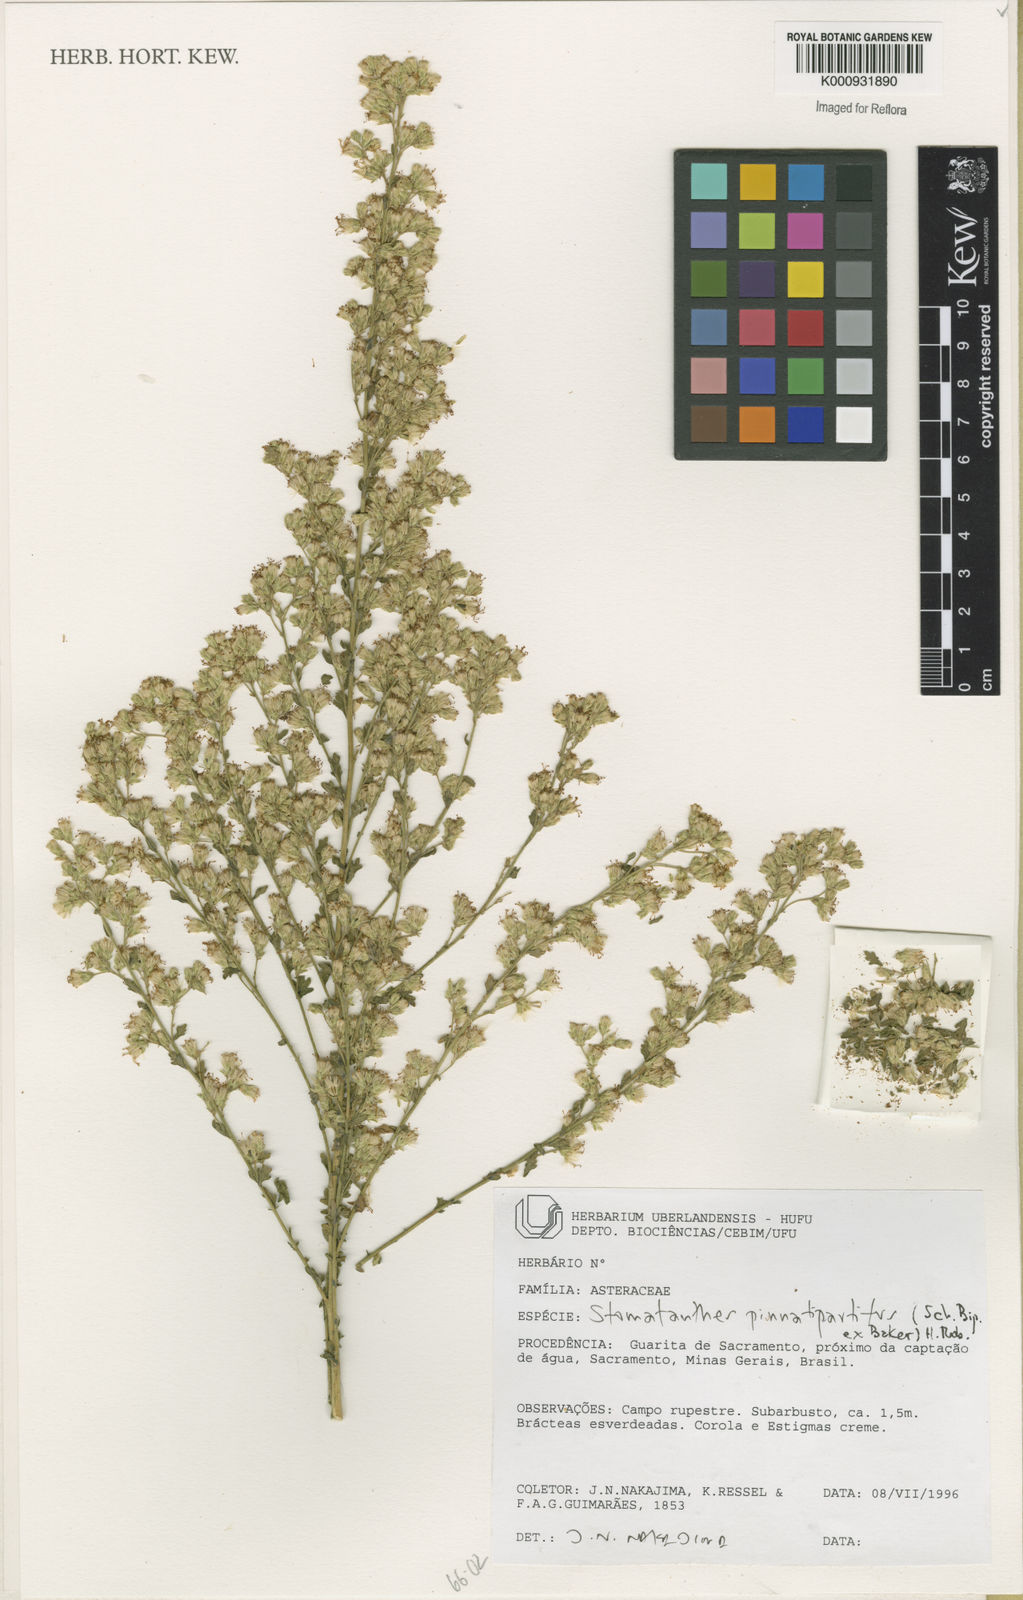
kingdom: Plantae
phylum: Tracheophyta
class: Magnoliopsida
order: Asterales
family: Asteraceae
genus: Stomatanthes
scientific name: Stomatanthes pinnatipartitus
